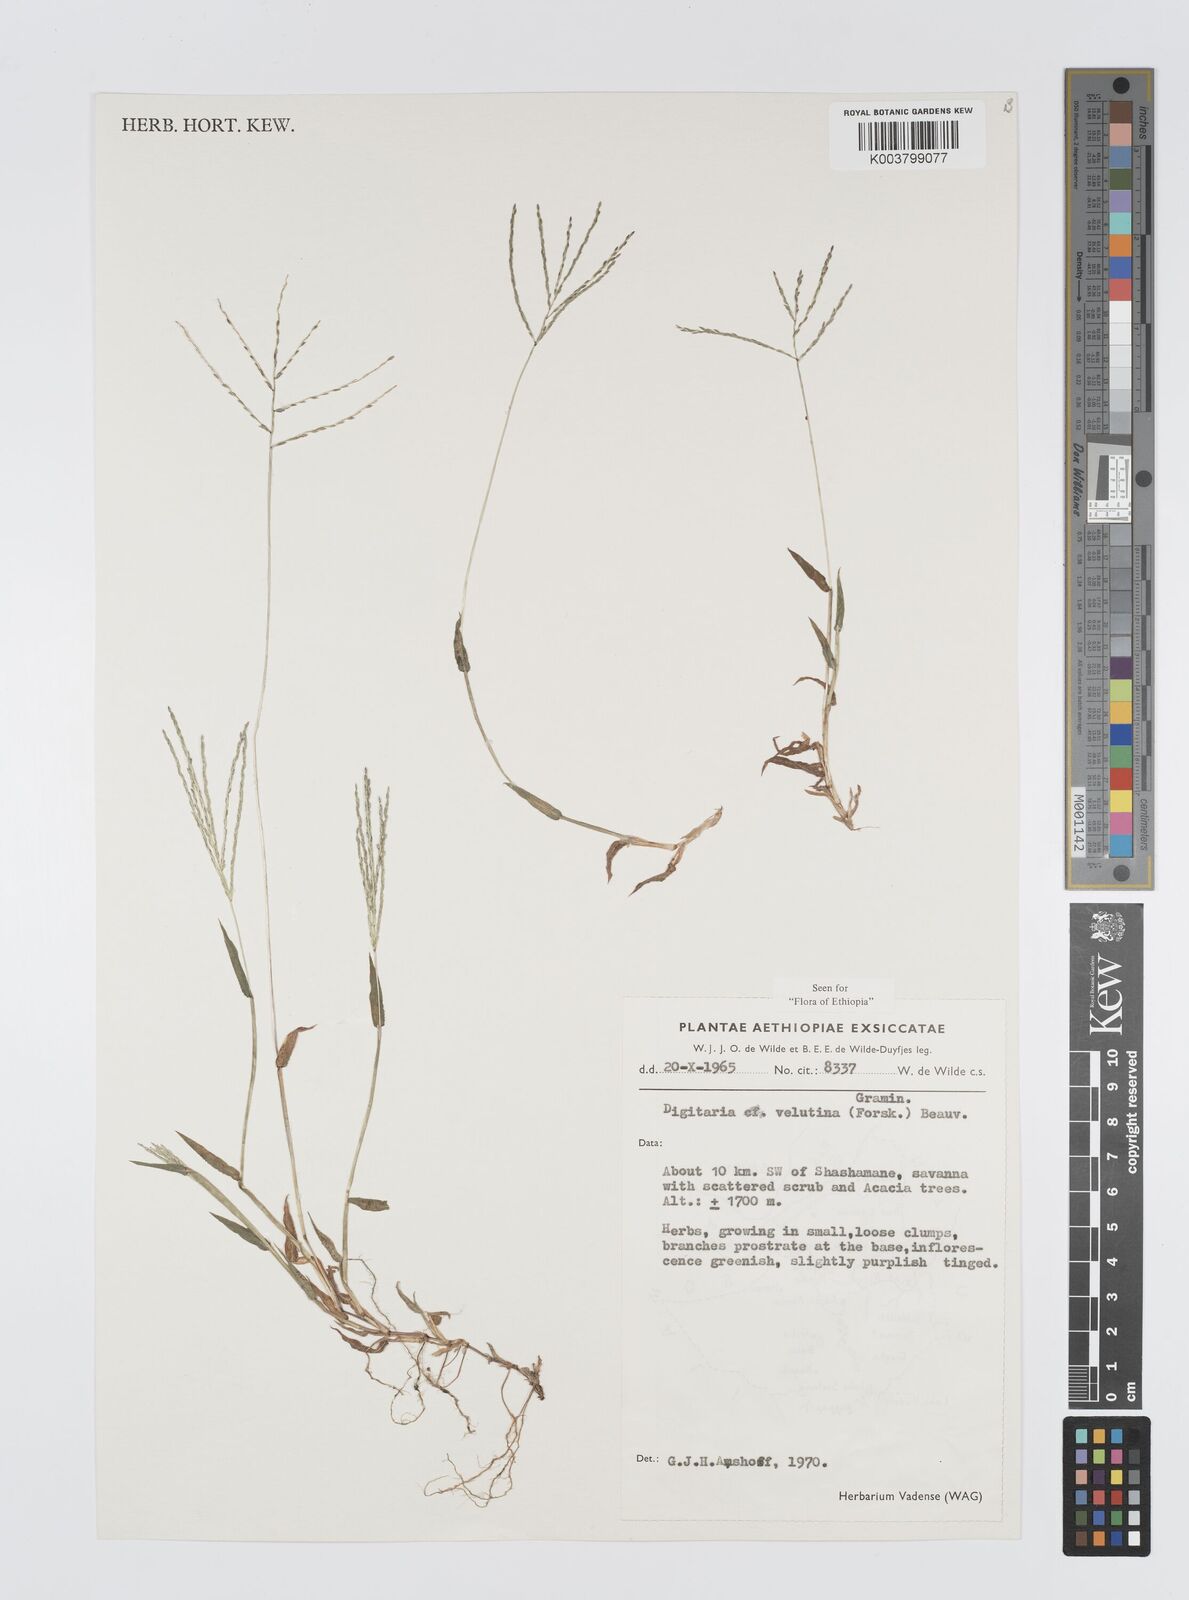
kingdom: Plantae
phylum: Tracheophyta
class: Liliopsida
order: Poales
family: Poaceae
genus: Digitaria
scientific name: Digitaria velutina
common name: Long-plume finger grass
